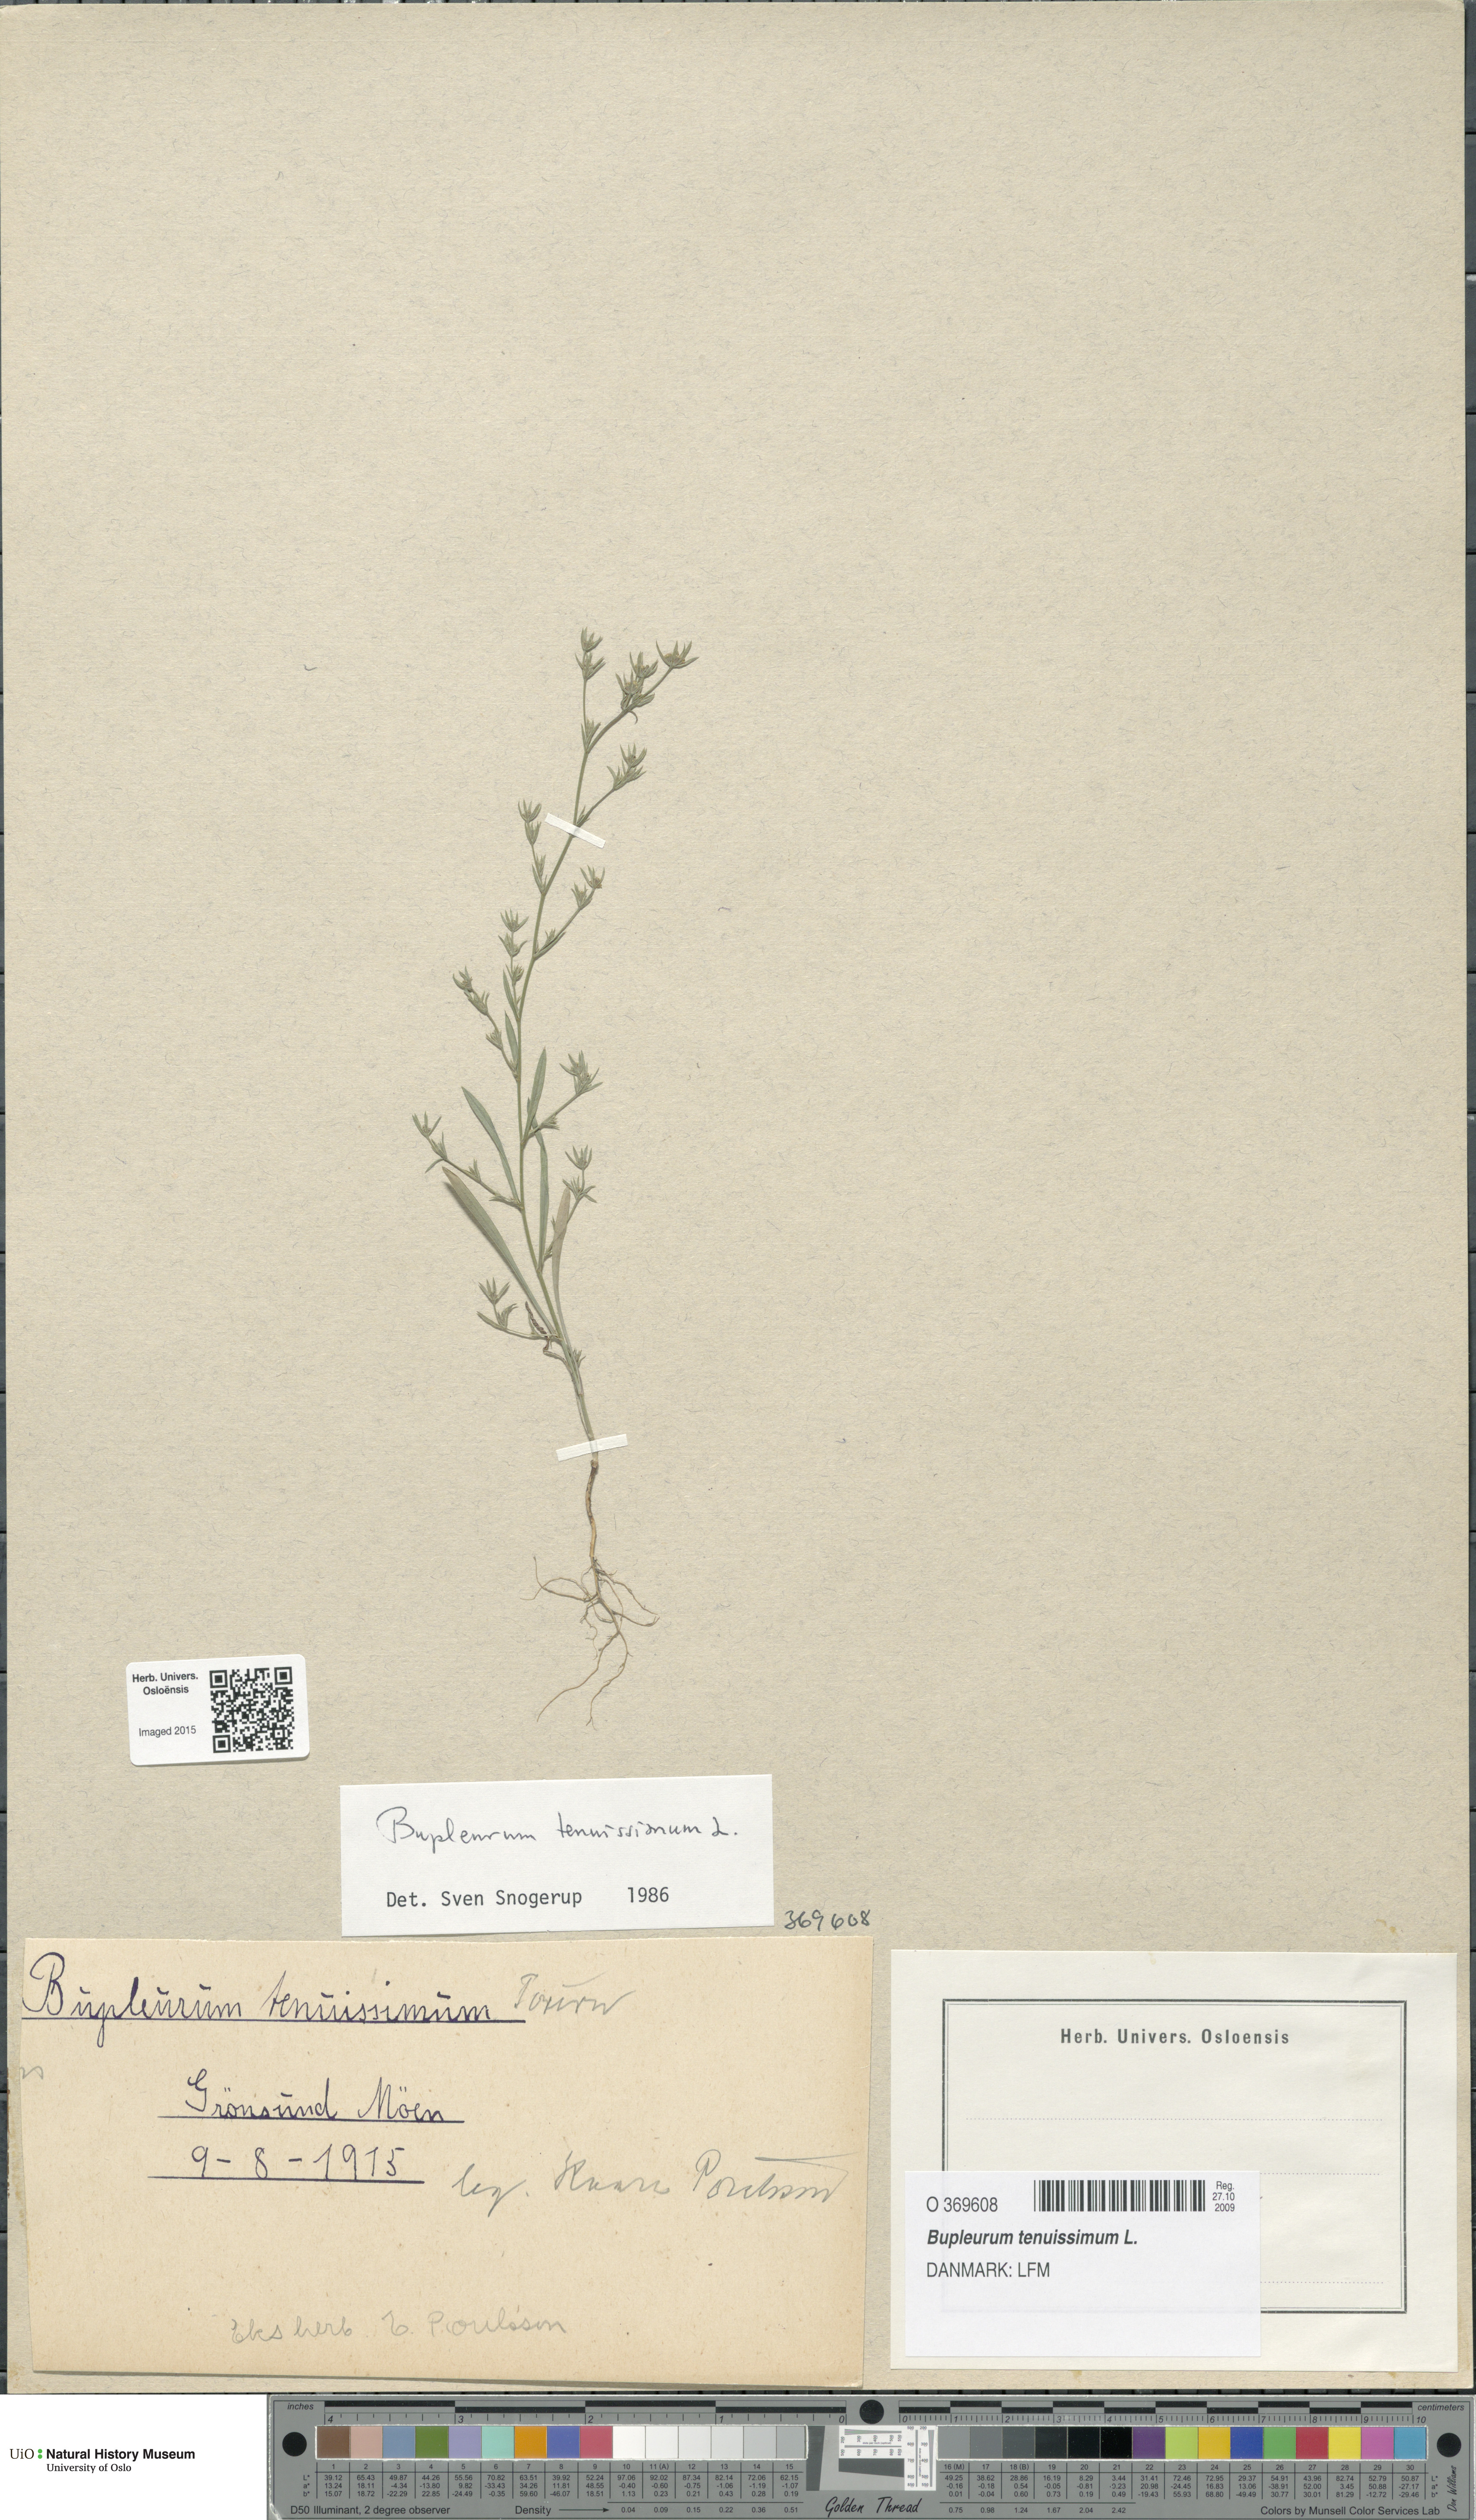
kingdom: Plantae
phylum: Tracheophyta
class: Magnoliopsida
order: Apiales
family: Apiaceae
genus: Bupleurum
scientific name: Bupleurum tenuissimum
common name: Slender hare's-ear
